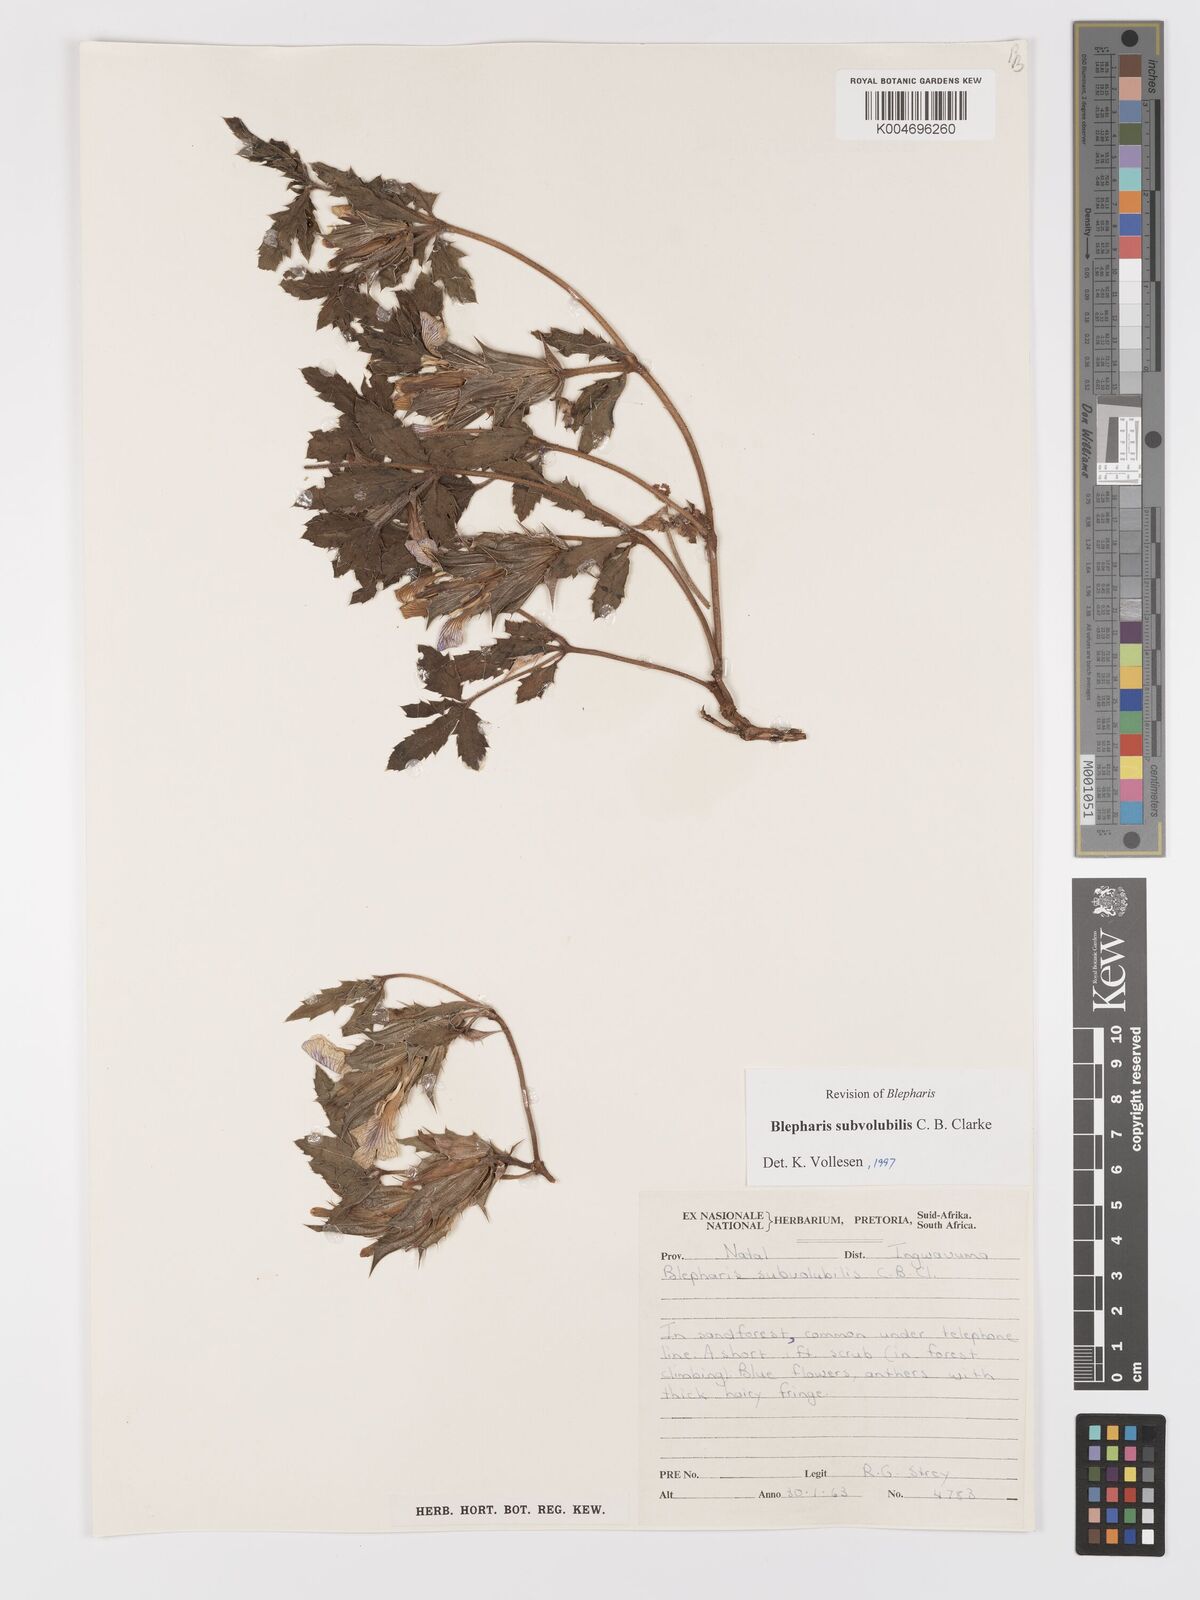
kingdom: Plantae
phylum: Tracheophyta
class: Magnoliopsida
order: Lamiales
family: Acanthaceae
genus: Blepharis
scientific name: Blepharis subvolubilis
